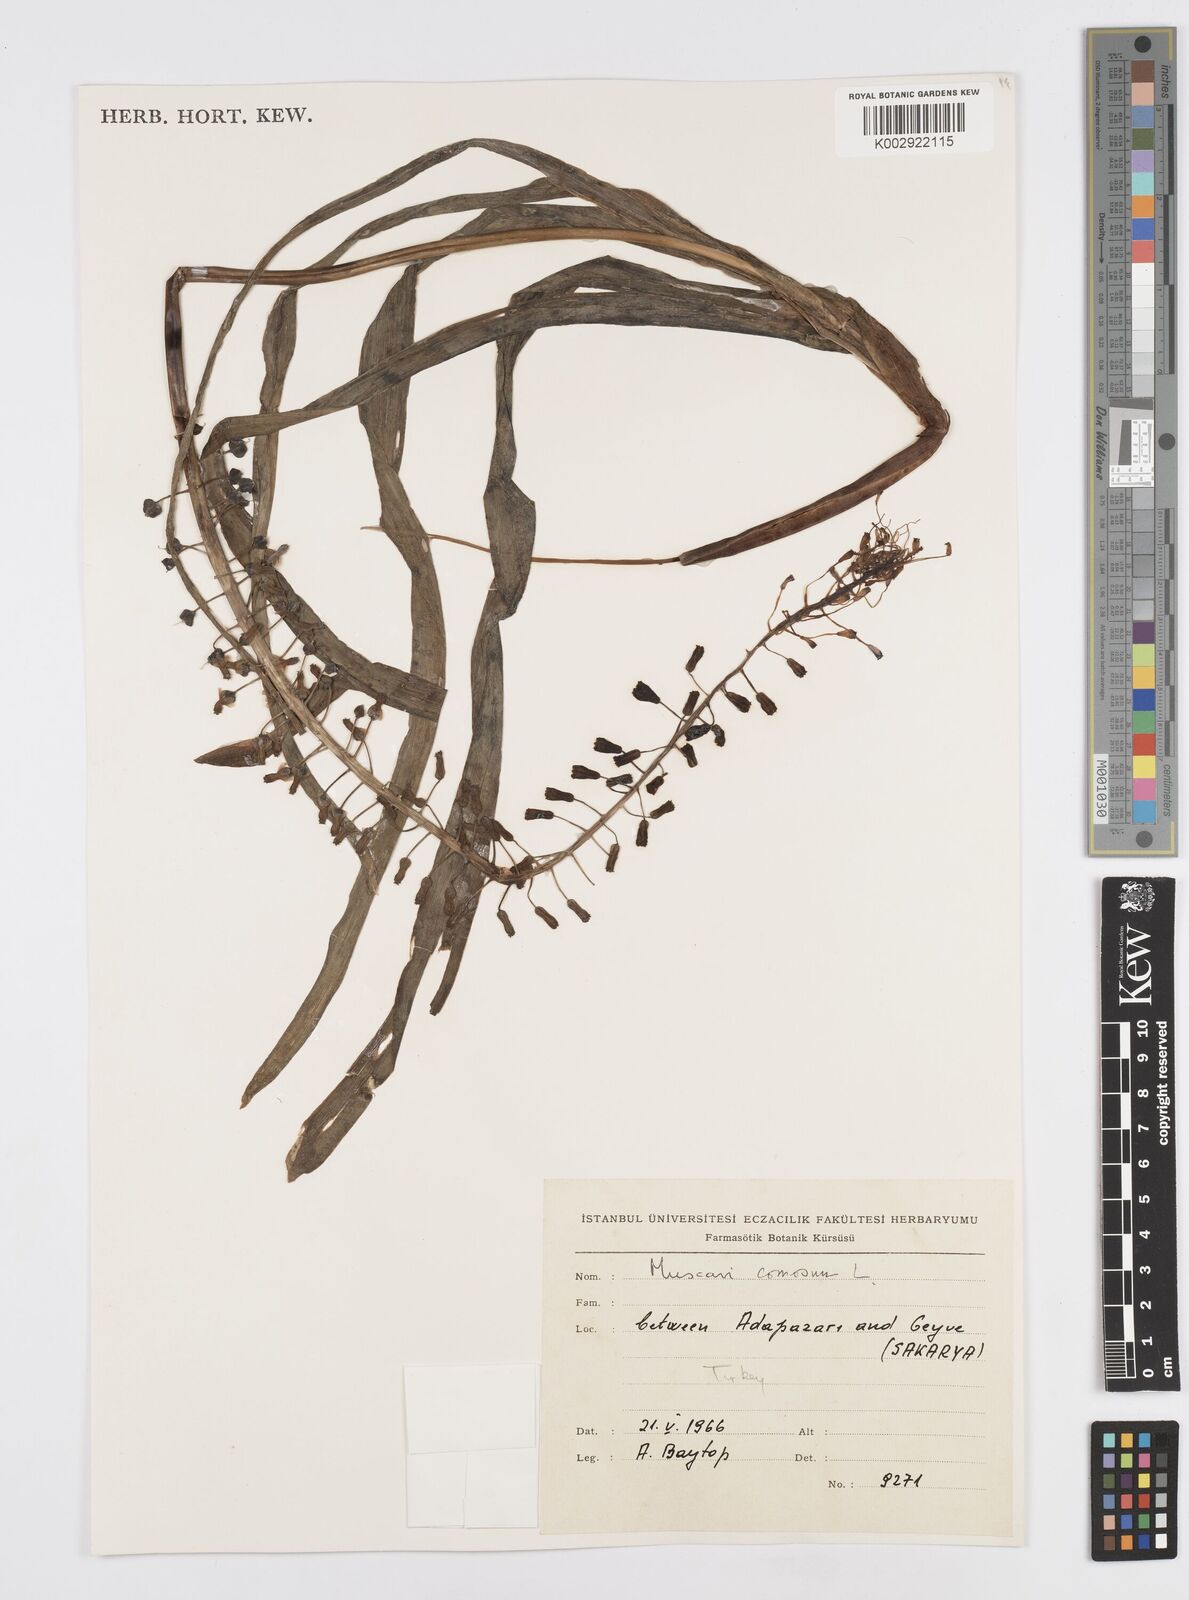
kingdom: Plantae
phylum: Tracheophyta
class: Liliopsida
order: Asparagales
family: Asparagaceae
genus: Muscari
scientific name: Muscari comosum
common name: Tassel hyacinth
